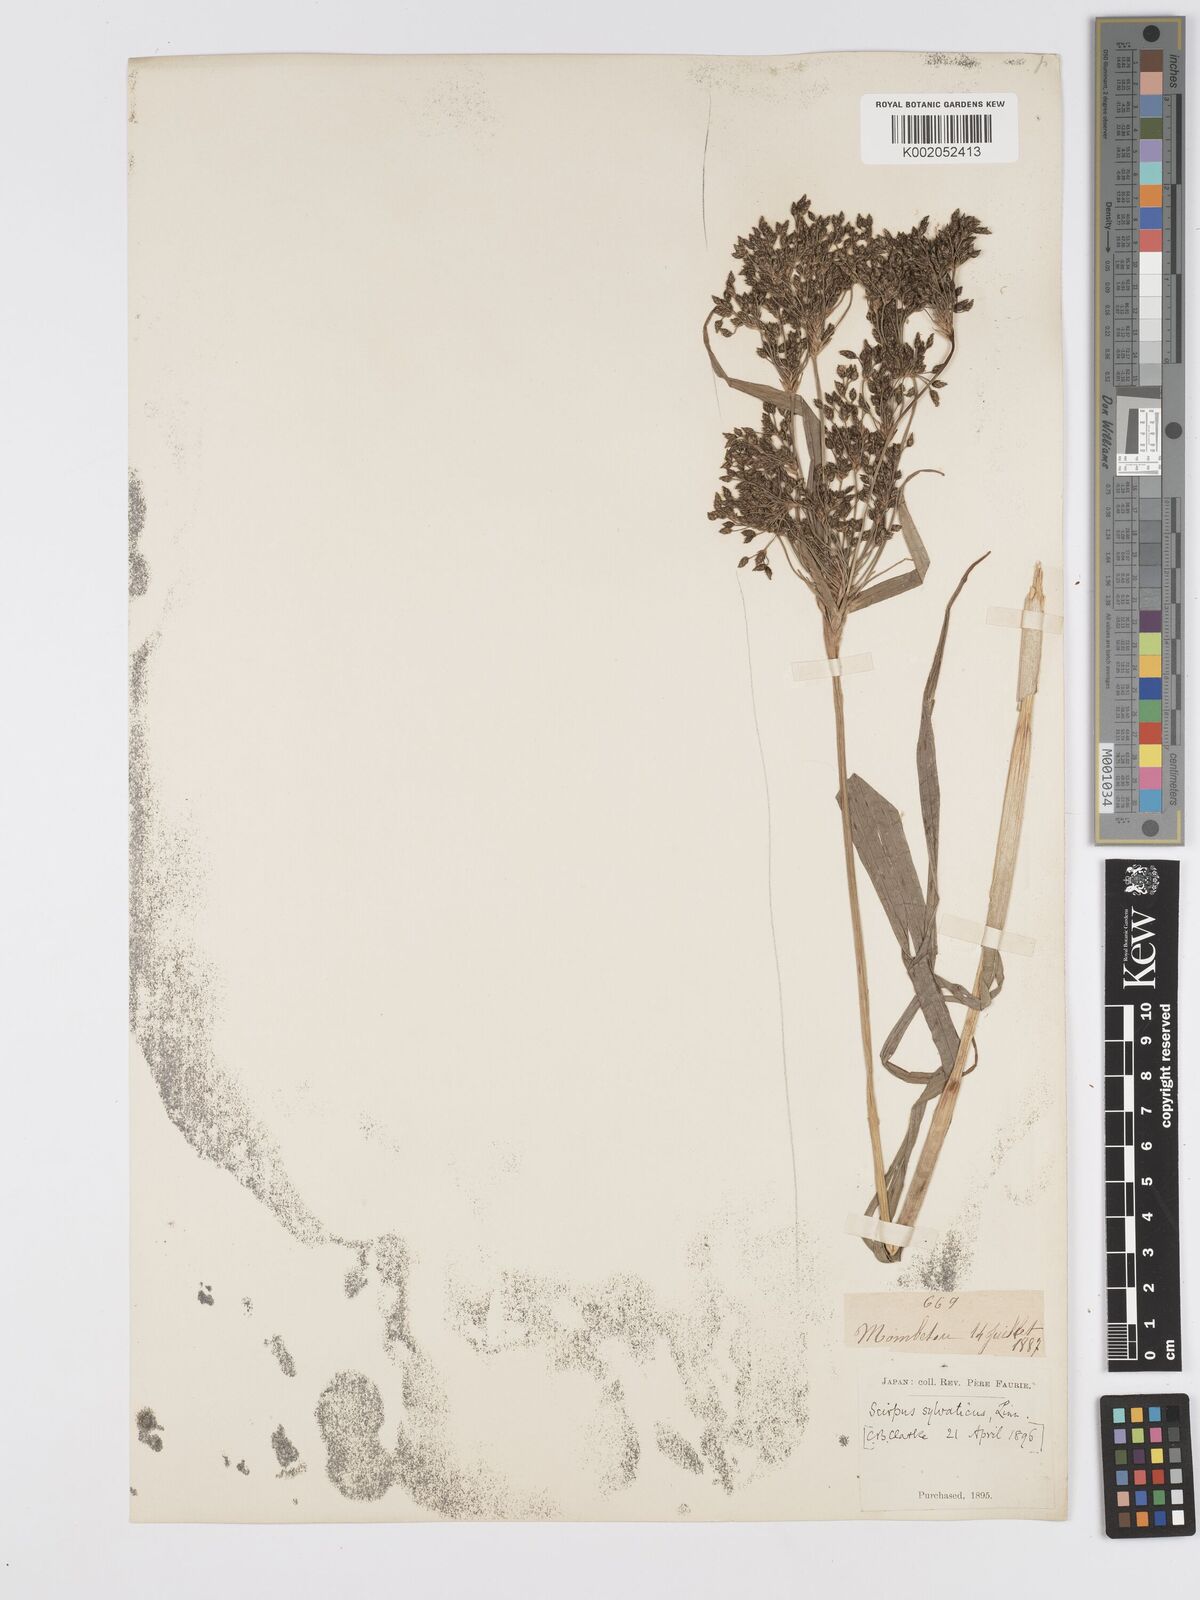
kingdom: Plantae
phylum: Tracheophyta
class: Liliopsida
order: Poales
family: Cyperaceae
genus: Scirpus
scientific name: Scirpus sylvaticus
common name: Wood club-rush
